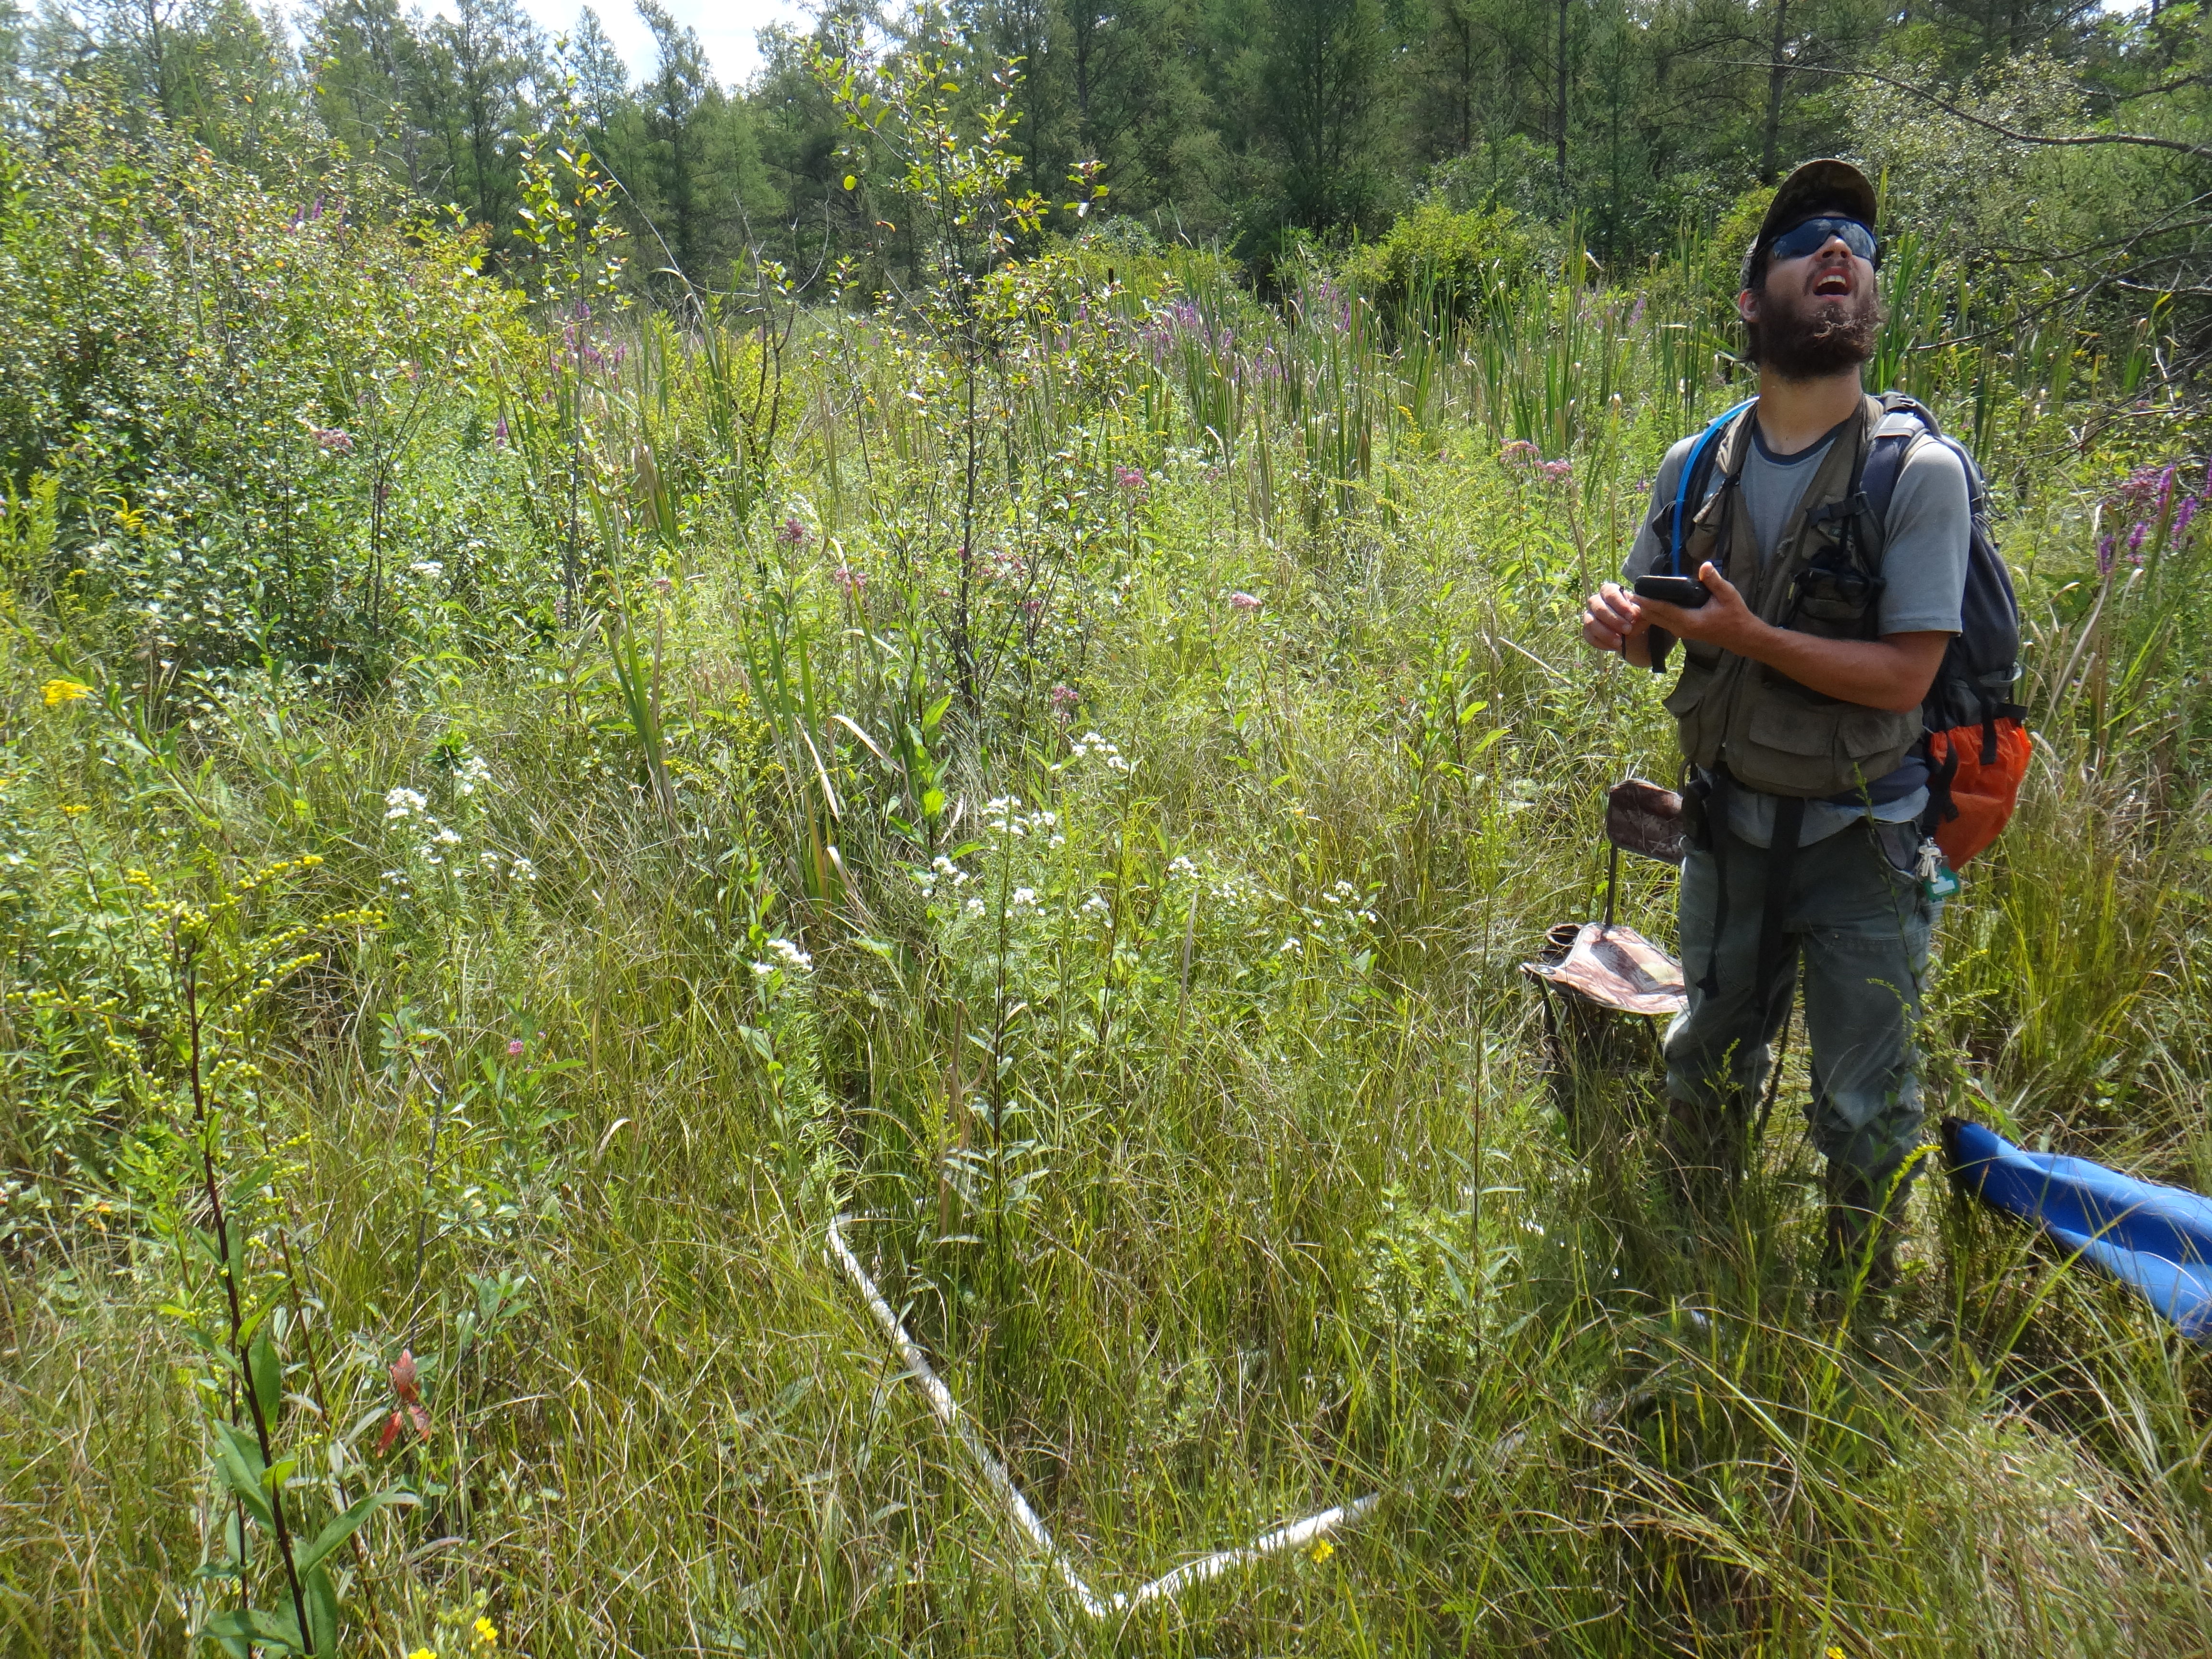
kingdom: Plantae
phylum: Tracheophyta
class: Liliopsida
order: Poales
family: Poaceae
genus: Glyceria
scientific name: Glyceria striata
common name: Fowl manna grass
